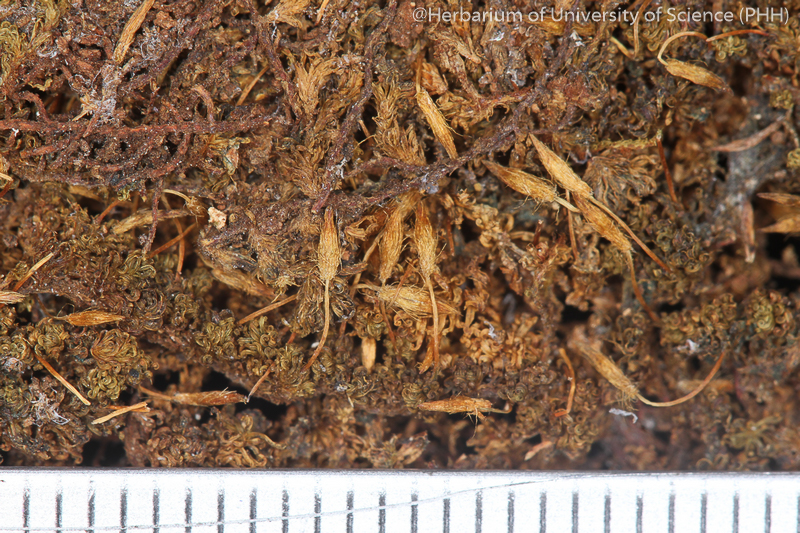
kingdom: Plantae
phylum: Bryophyta
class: Bryopsida
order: Orthotrichales
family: Orthotrichaceae
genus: Macromitrium
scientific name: Macromitrium japonicum
